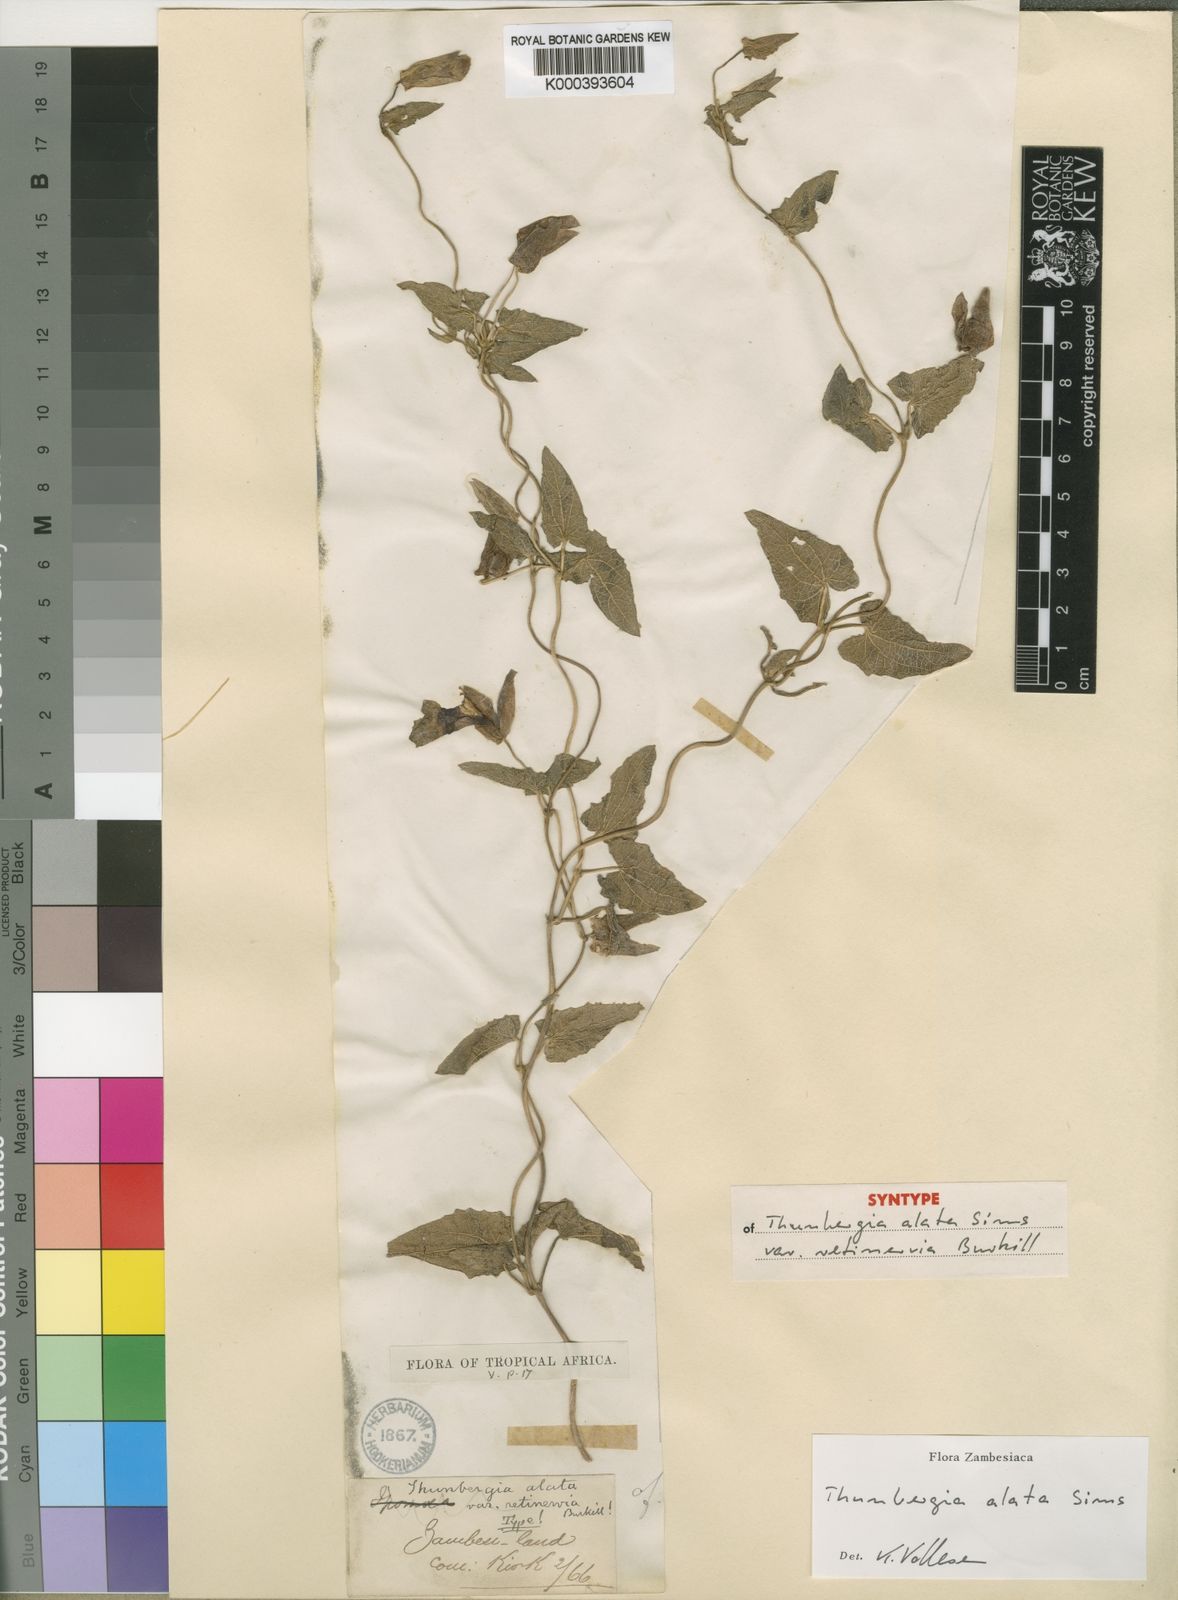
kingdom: Plantae
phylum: Tracheophyta
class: Magnoliopsida
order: Lamiales
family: Acanthaceae
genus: Thunbergia
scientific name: Thunbergia alata
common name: Blackeyed susan vine
